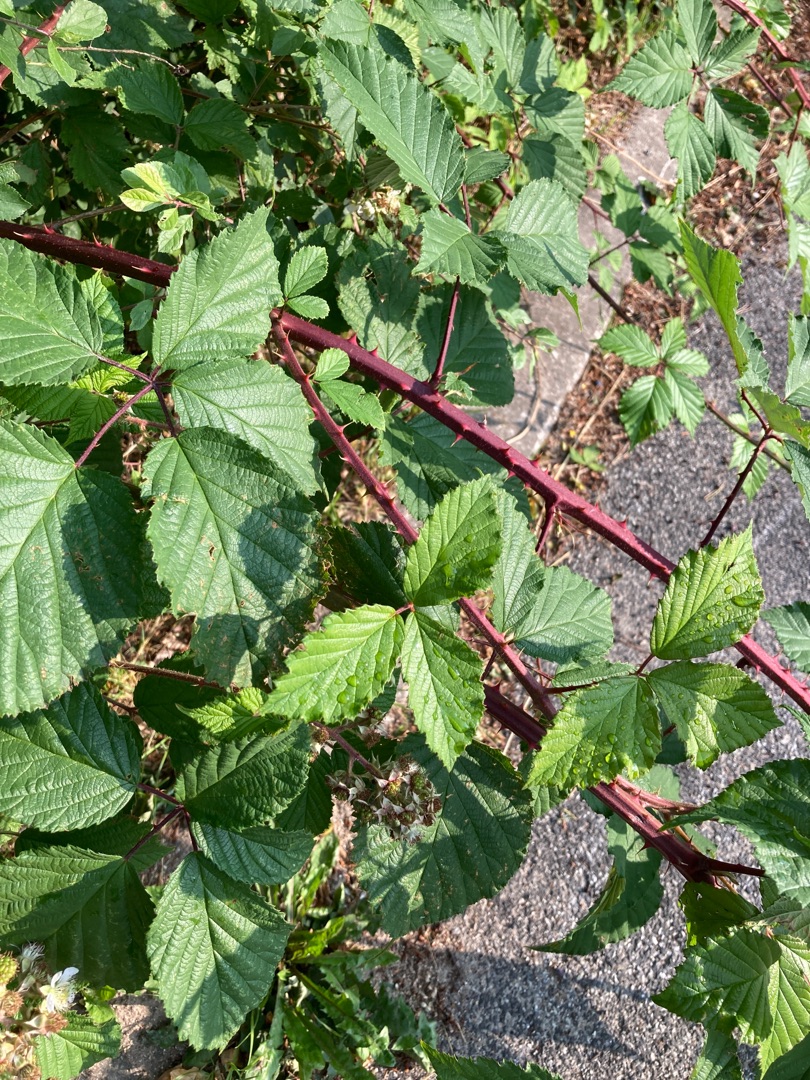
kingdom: Plantae
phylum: Tracheophyta
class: Magnoliopsida
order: Rosales
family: Rosaceae
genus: Rubus
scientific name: Rubus
